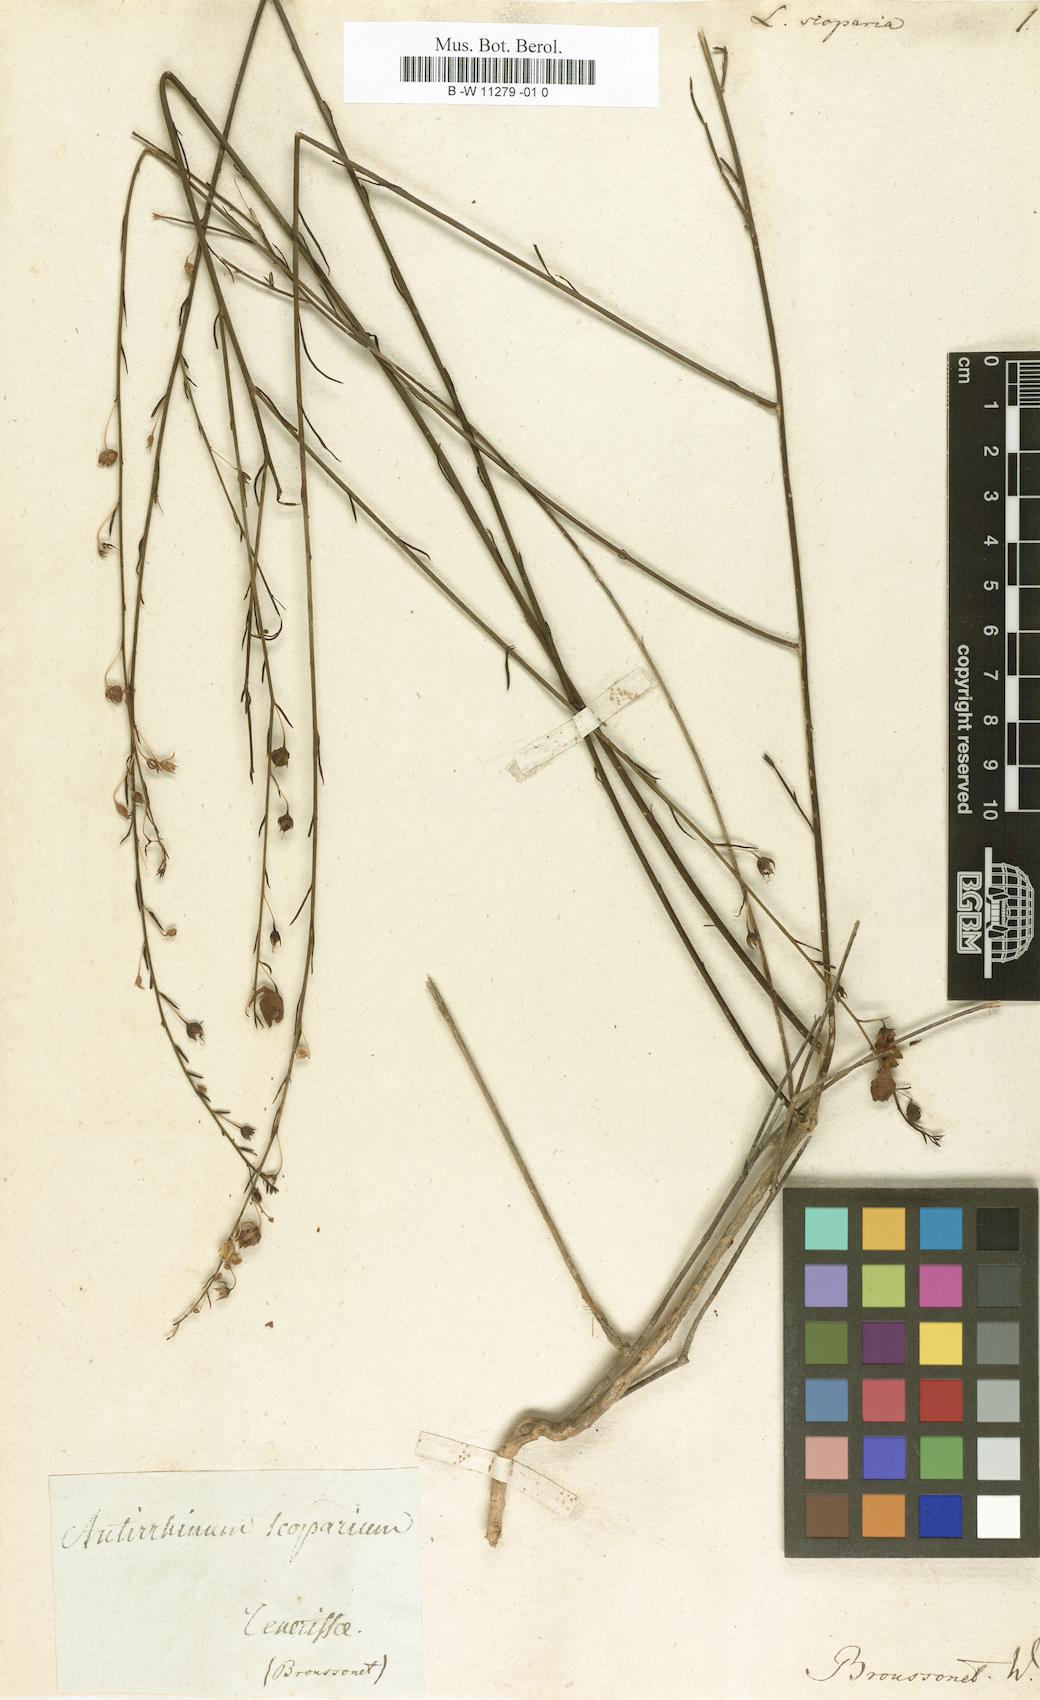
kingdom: Plantae
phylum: Tracheophyta
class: Magnoliopsida
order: Lamiales
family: Plantaginaceae
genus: Nanorrhinum
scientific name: Nanorrhinum scoparium
